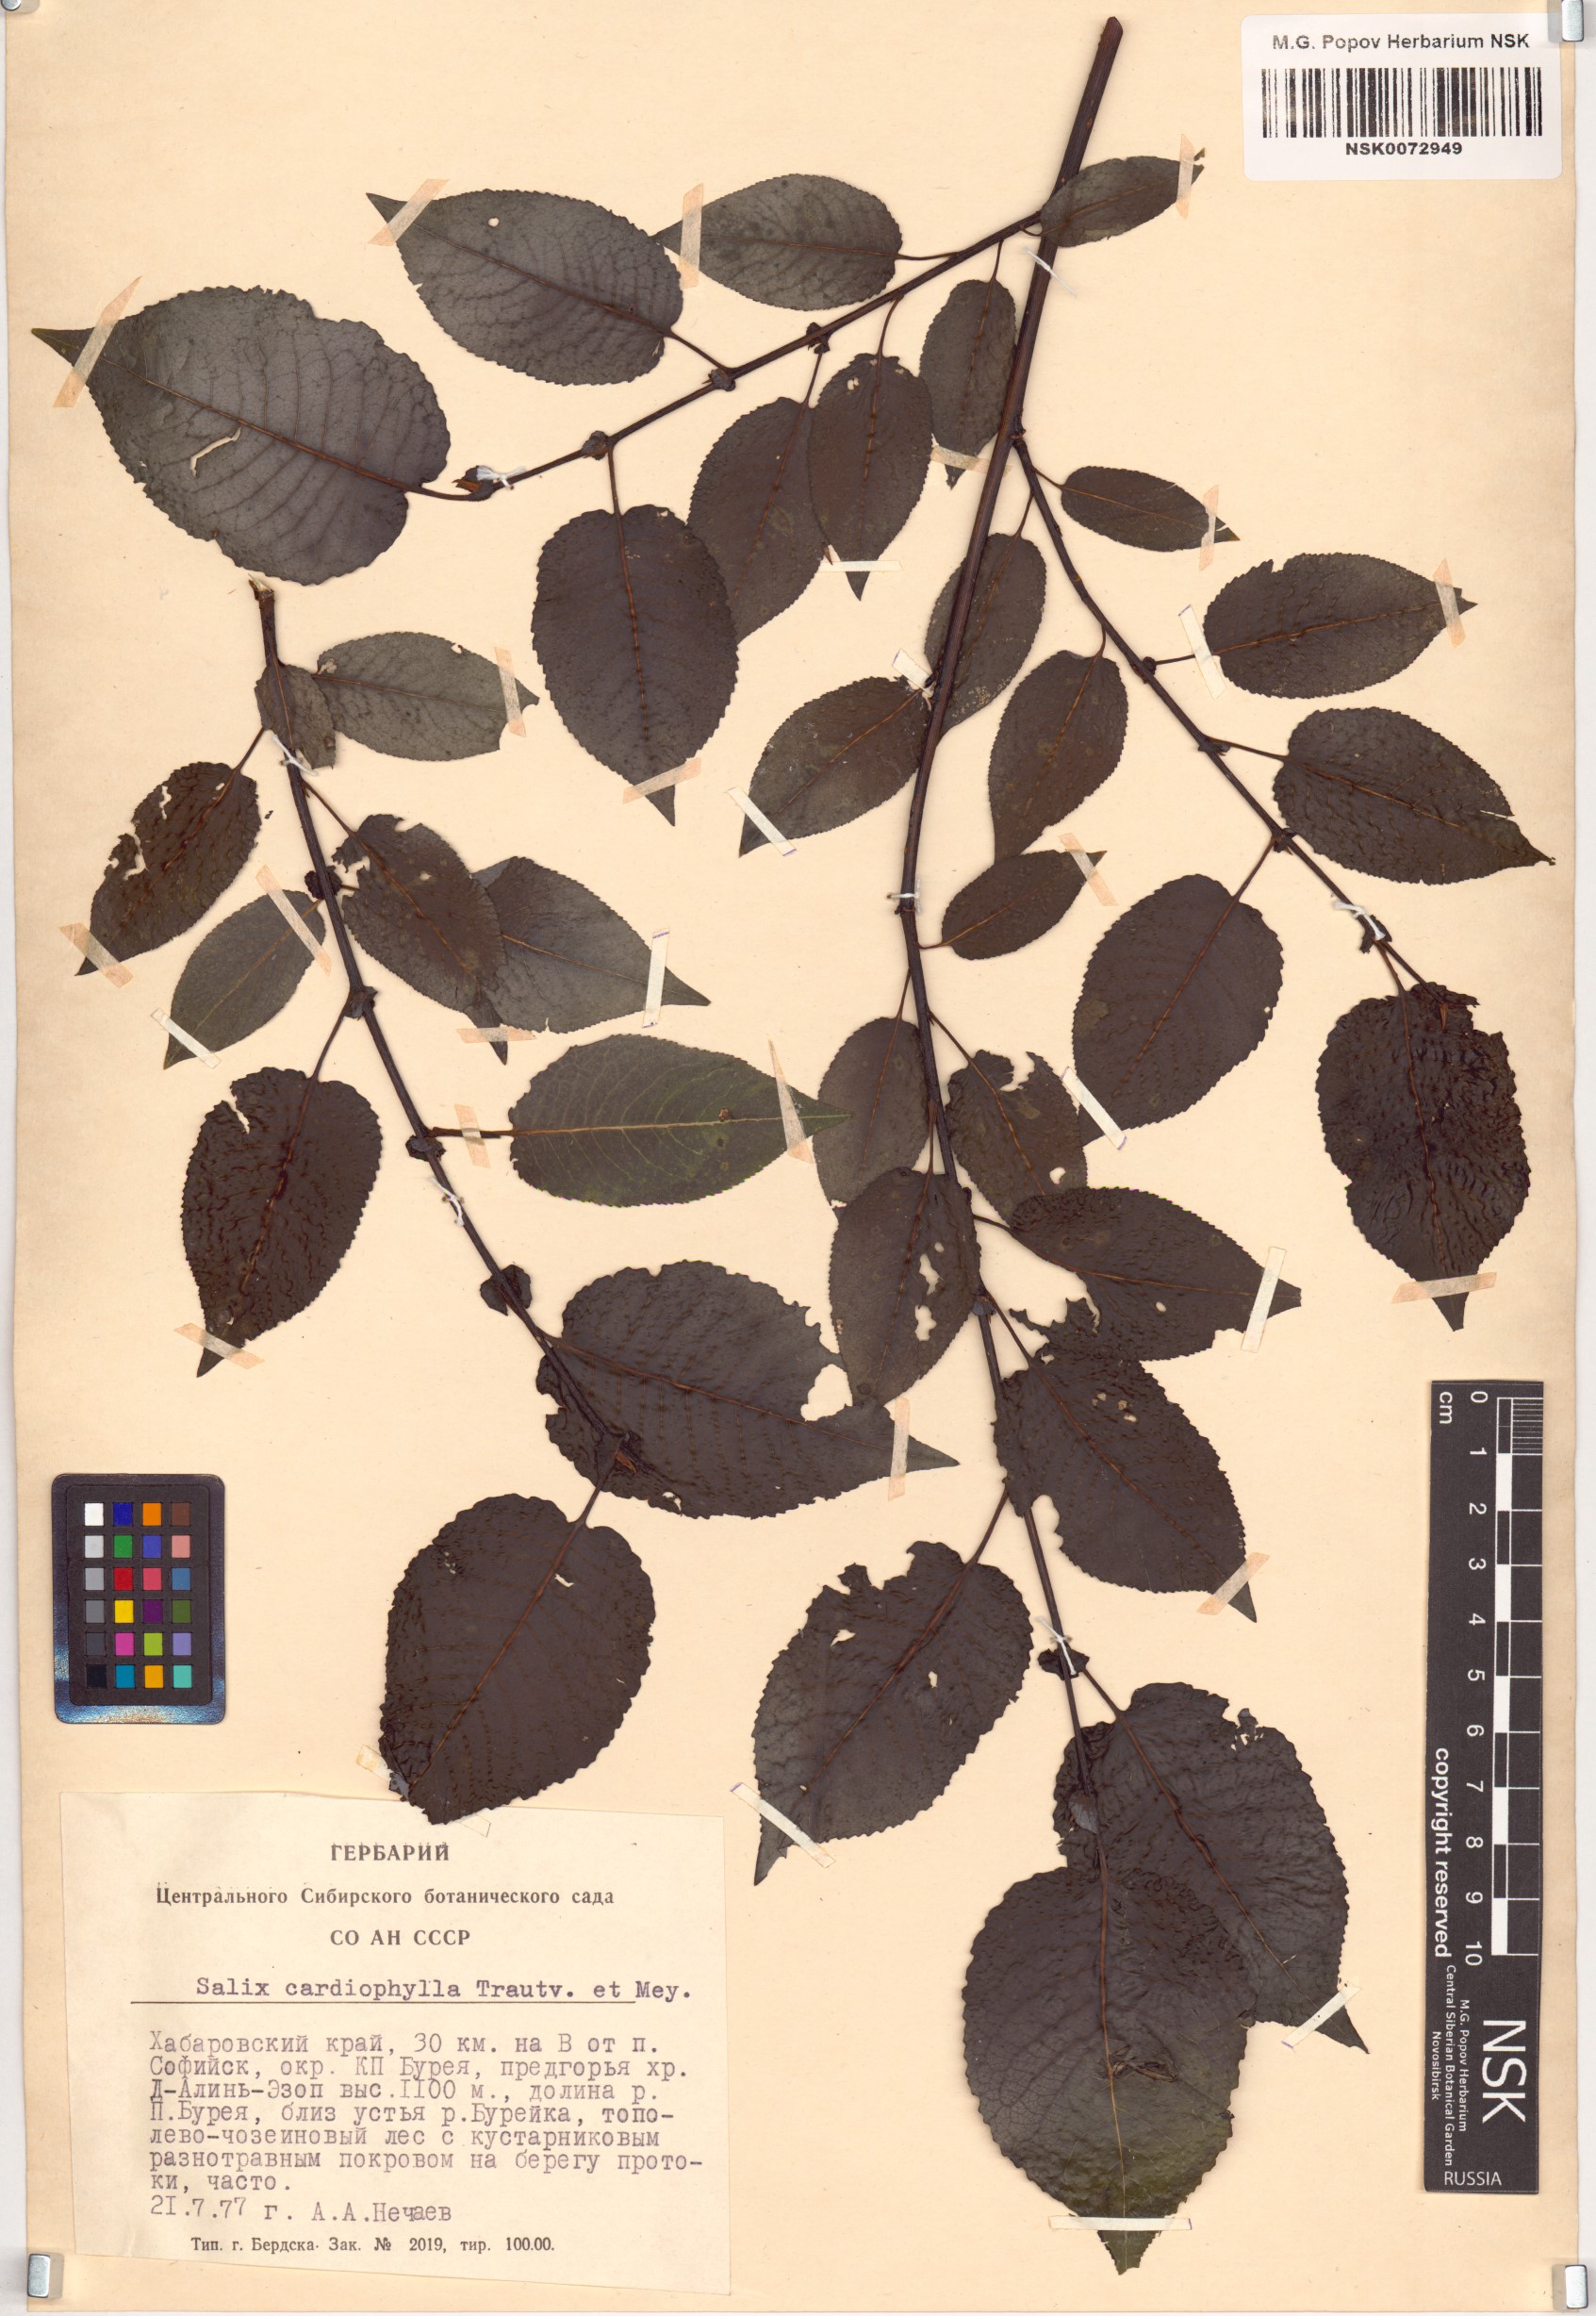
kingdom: Plantae
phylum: Tracheophyta
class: Magnoliopsida
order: Malpighiales
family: Salicaceae
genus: Chosenia
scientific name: Chosenia cardiophylla
